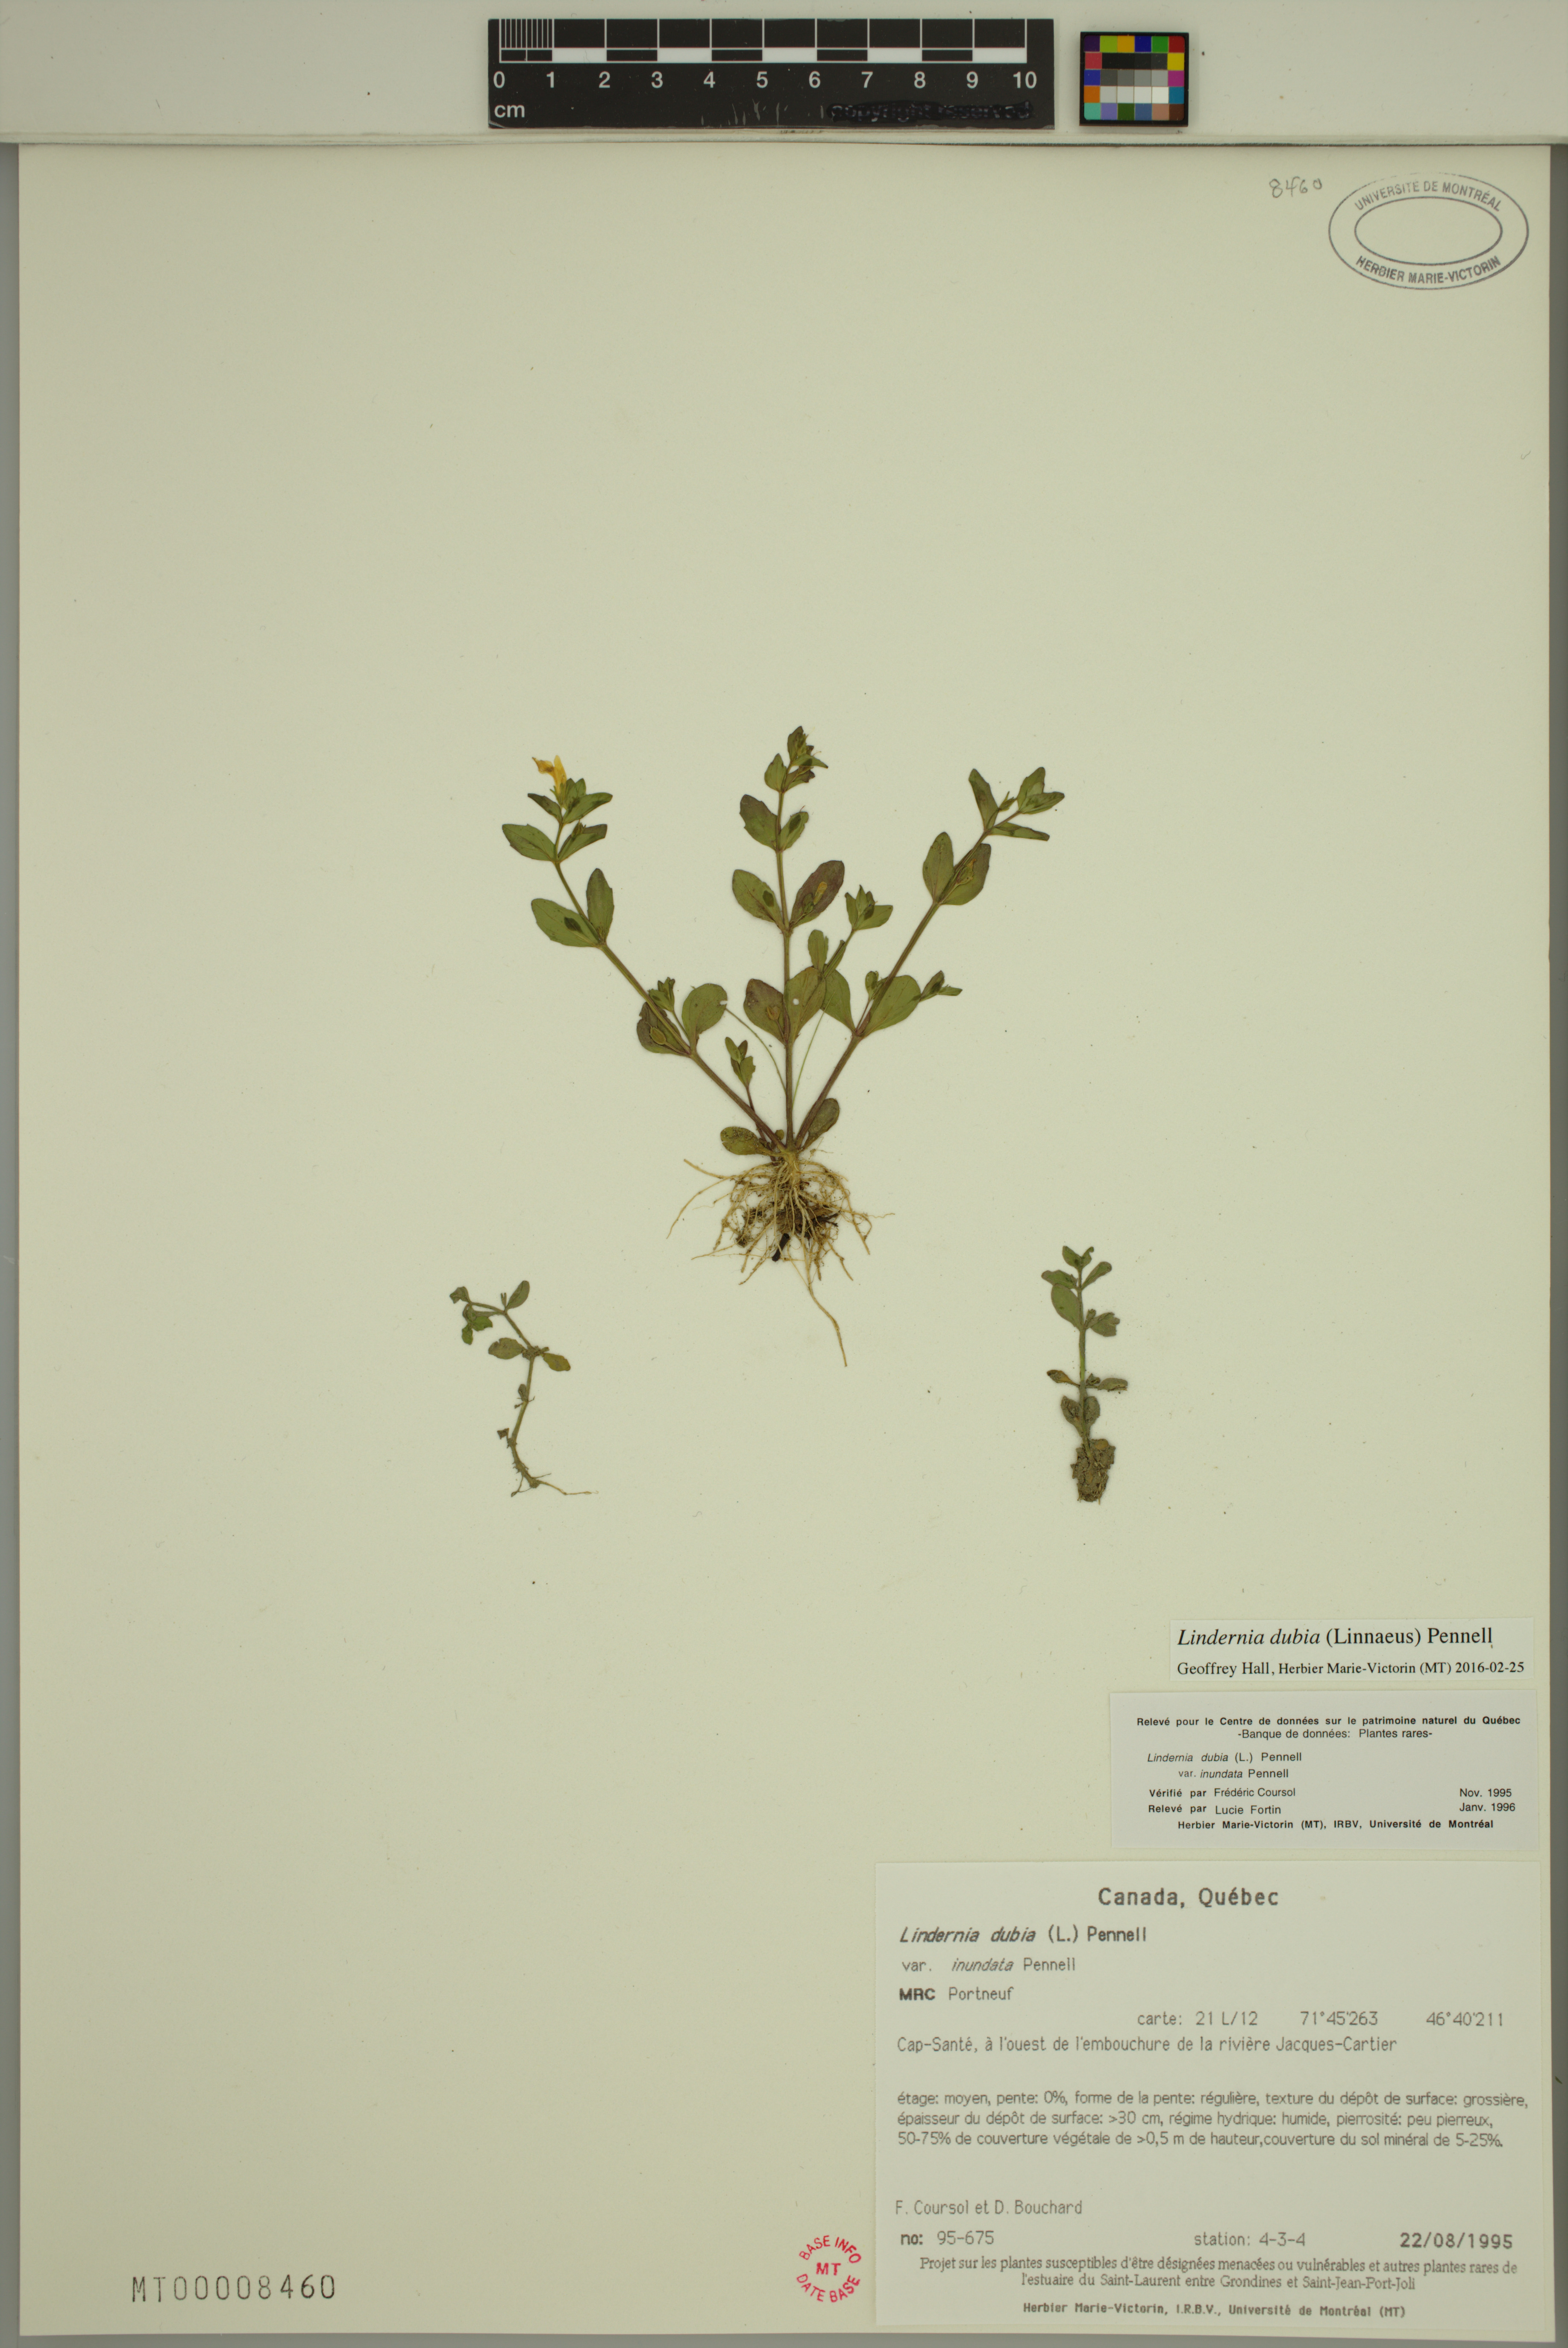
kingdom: Plantae
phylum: Tracheophyta
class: Magnoliopsida
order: Lamiales
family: Linderniaceae
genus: Lindernia
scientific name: Lindernia dubia
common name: Annual false pimpernel
